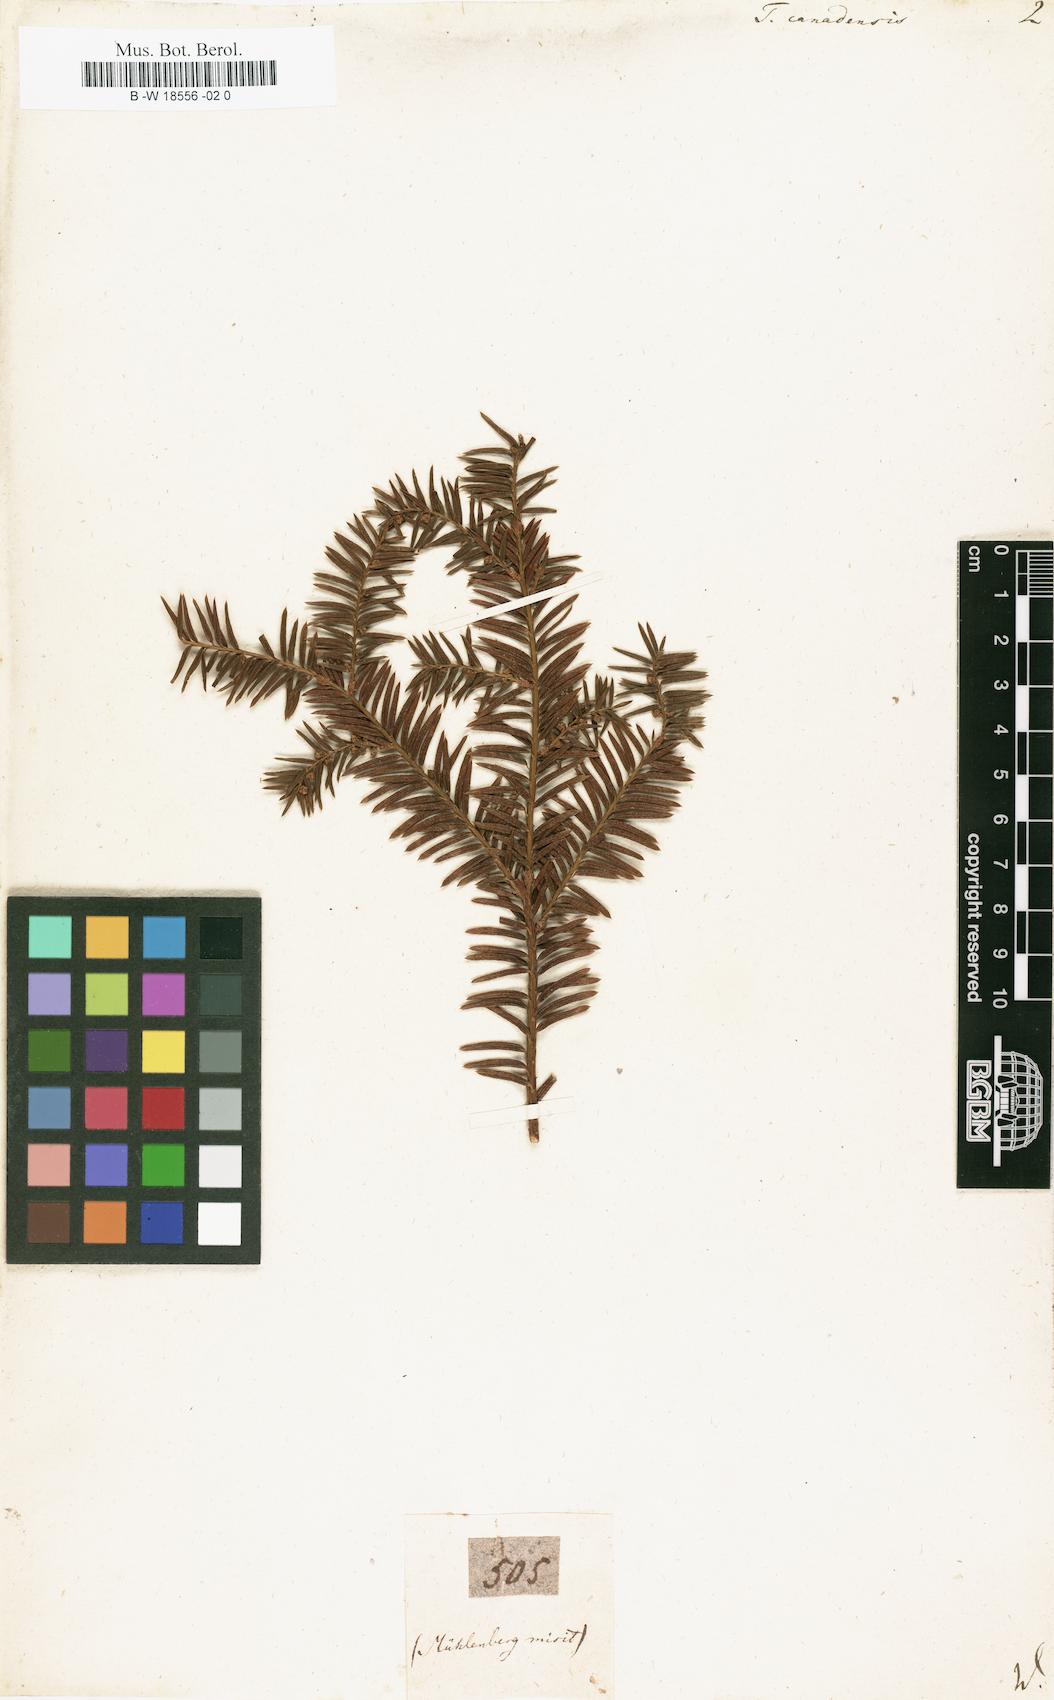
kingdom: Plantae
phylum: Tracheophyta
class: Pinopsida
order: Pinales
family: Taxaceae
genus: Taxus
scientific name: Taxus canadensis
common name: American yew
